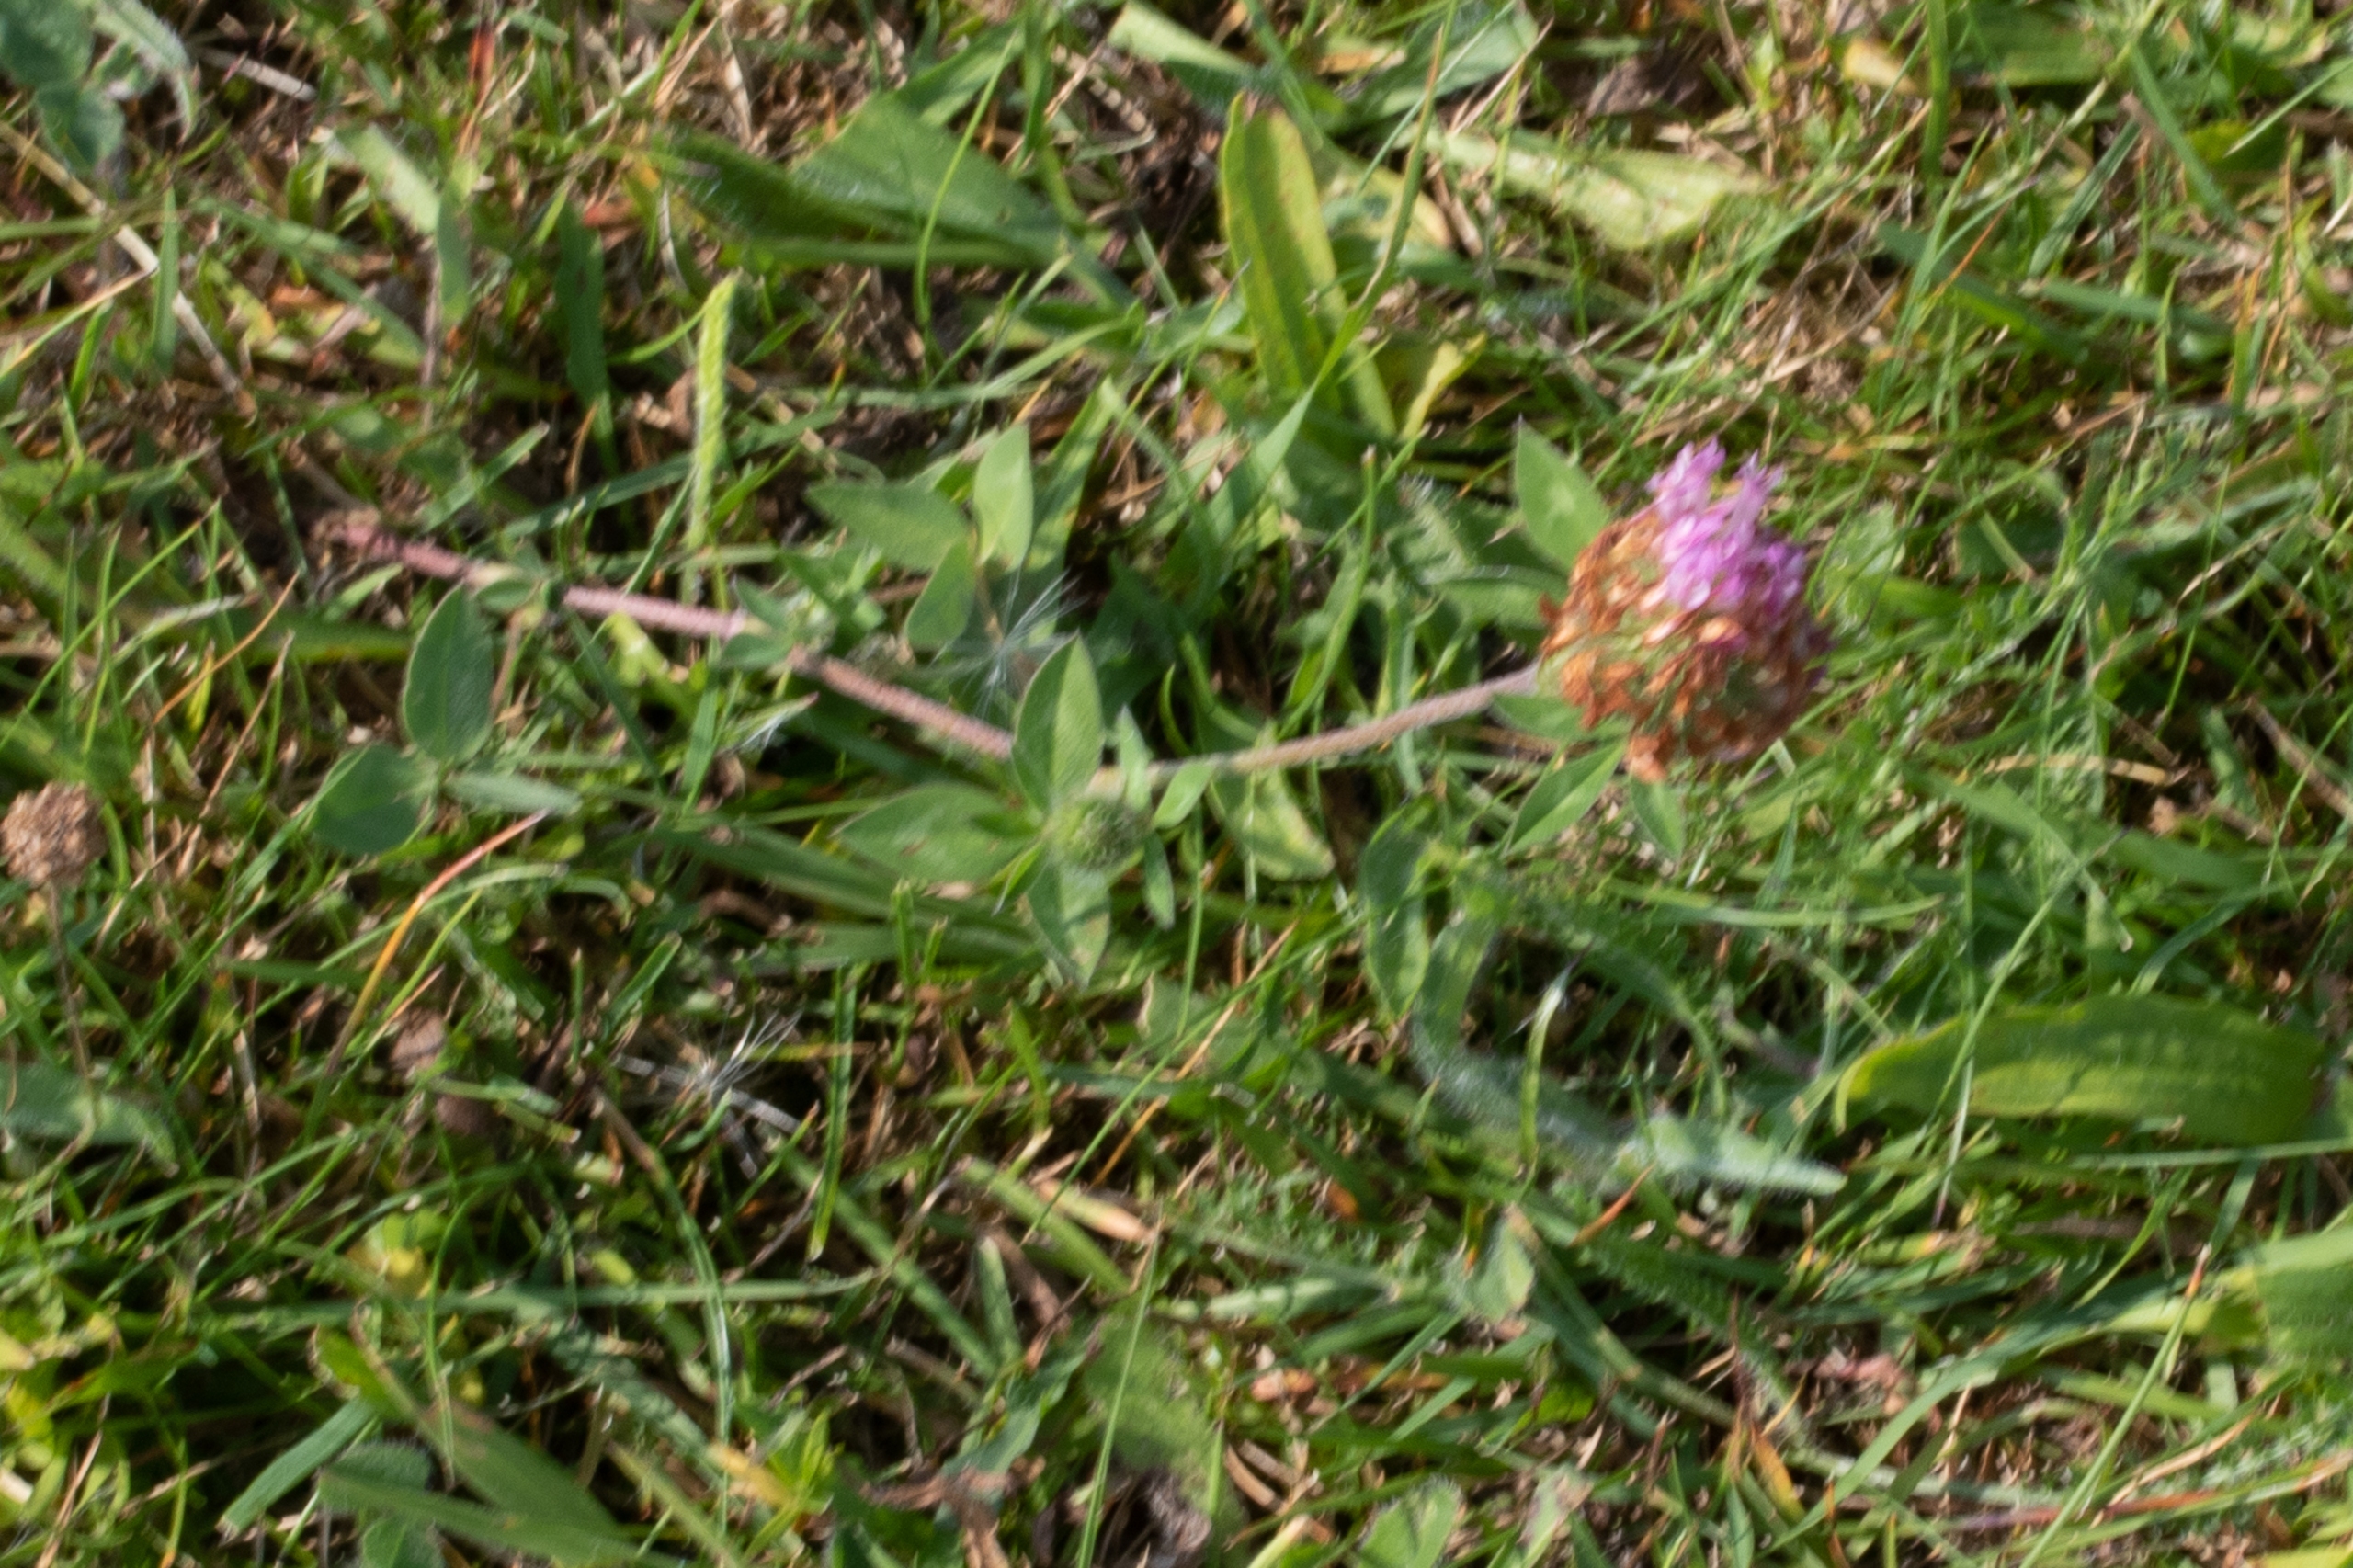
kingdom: Plantae
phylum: Tracheophyta
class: Magnoliopsida
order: Fabales
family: Fabaceae
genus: Trifolium
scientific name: Trifolium pratense
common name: Rød-kløver
